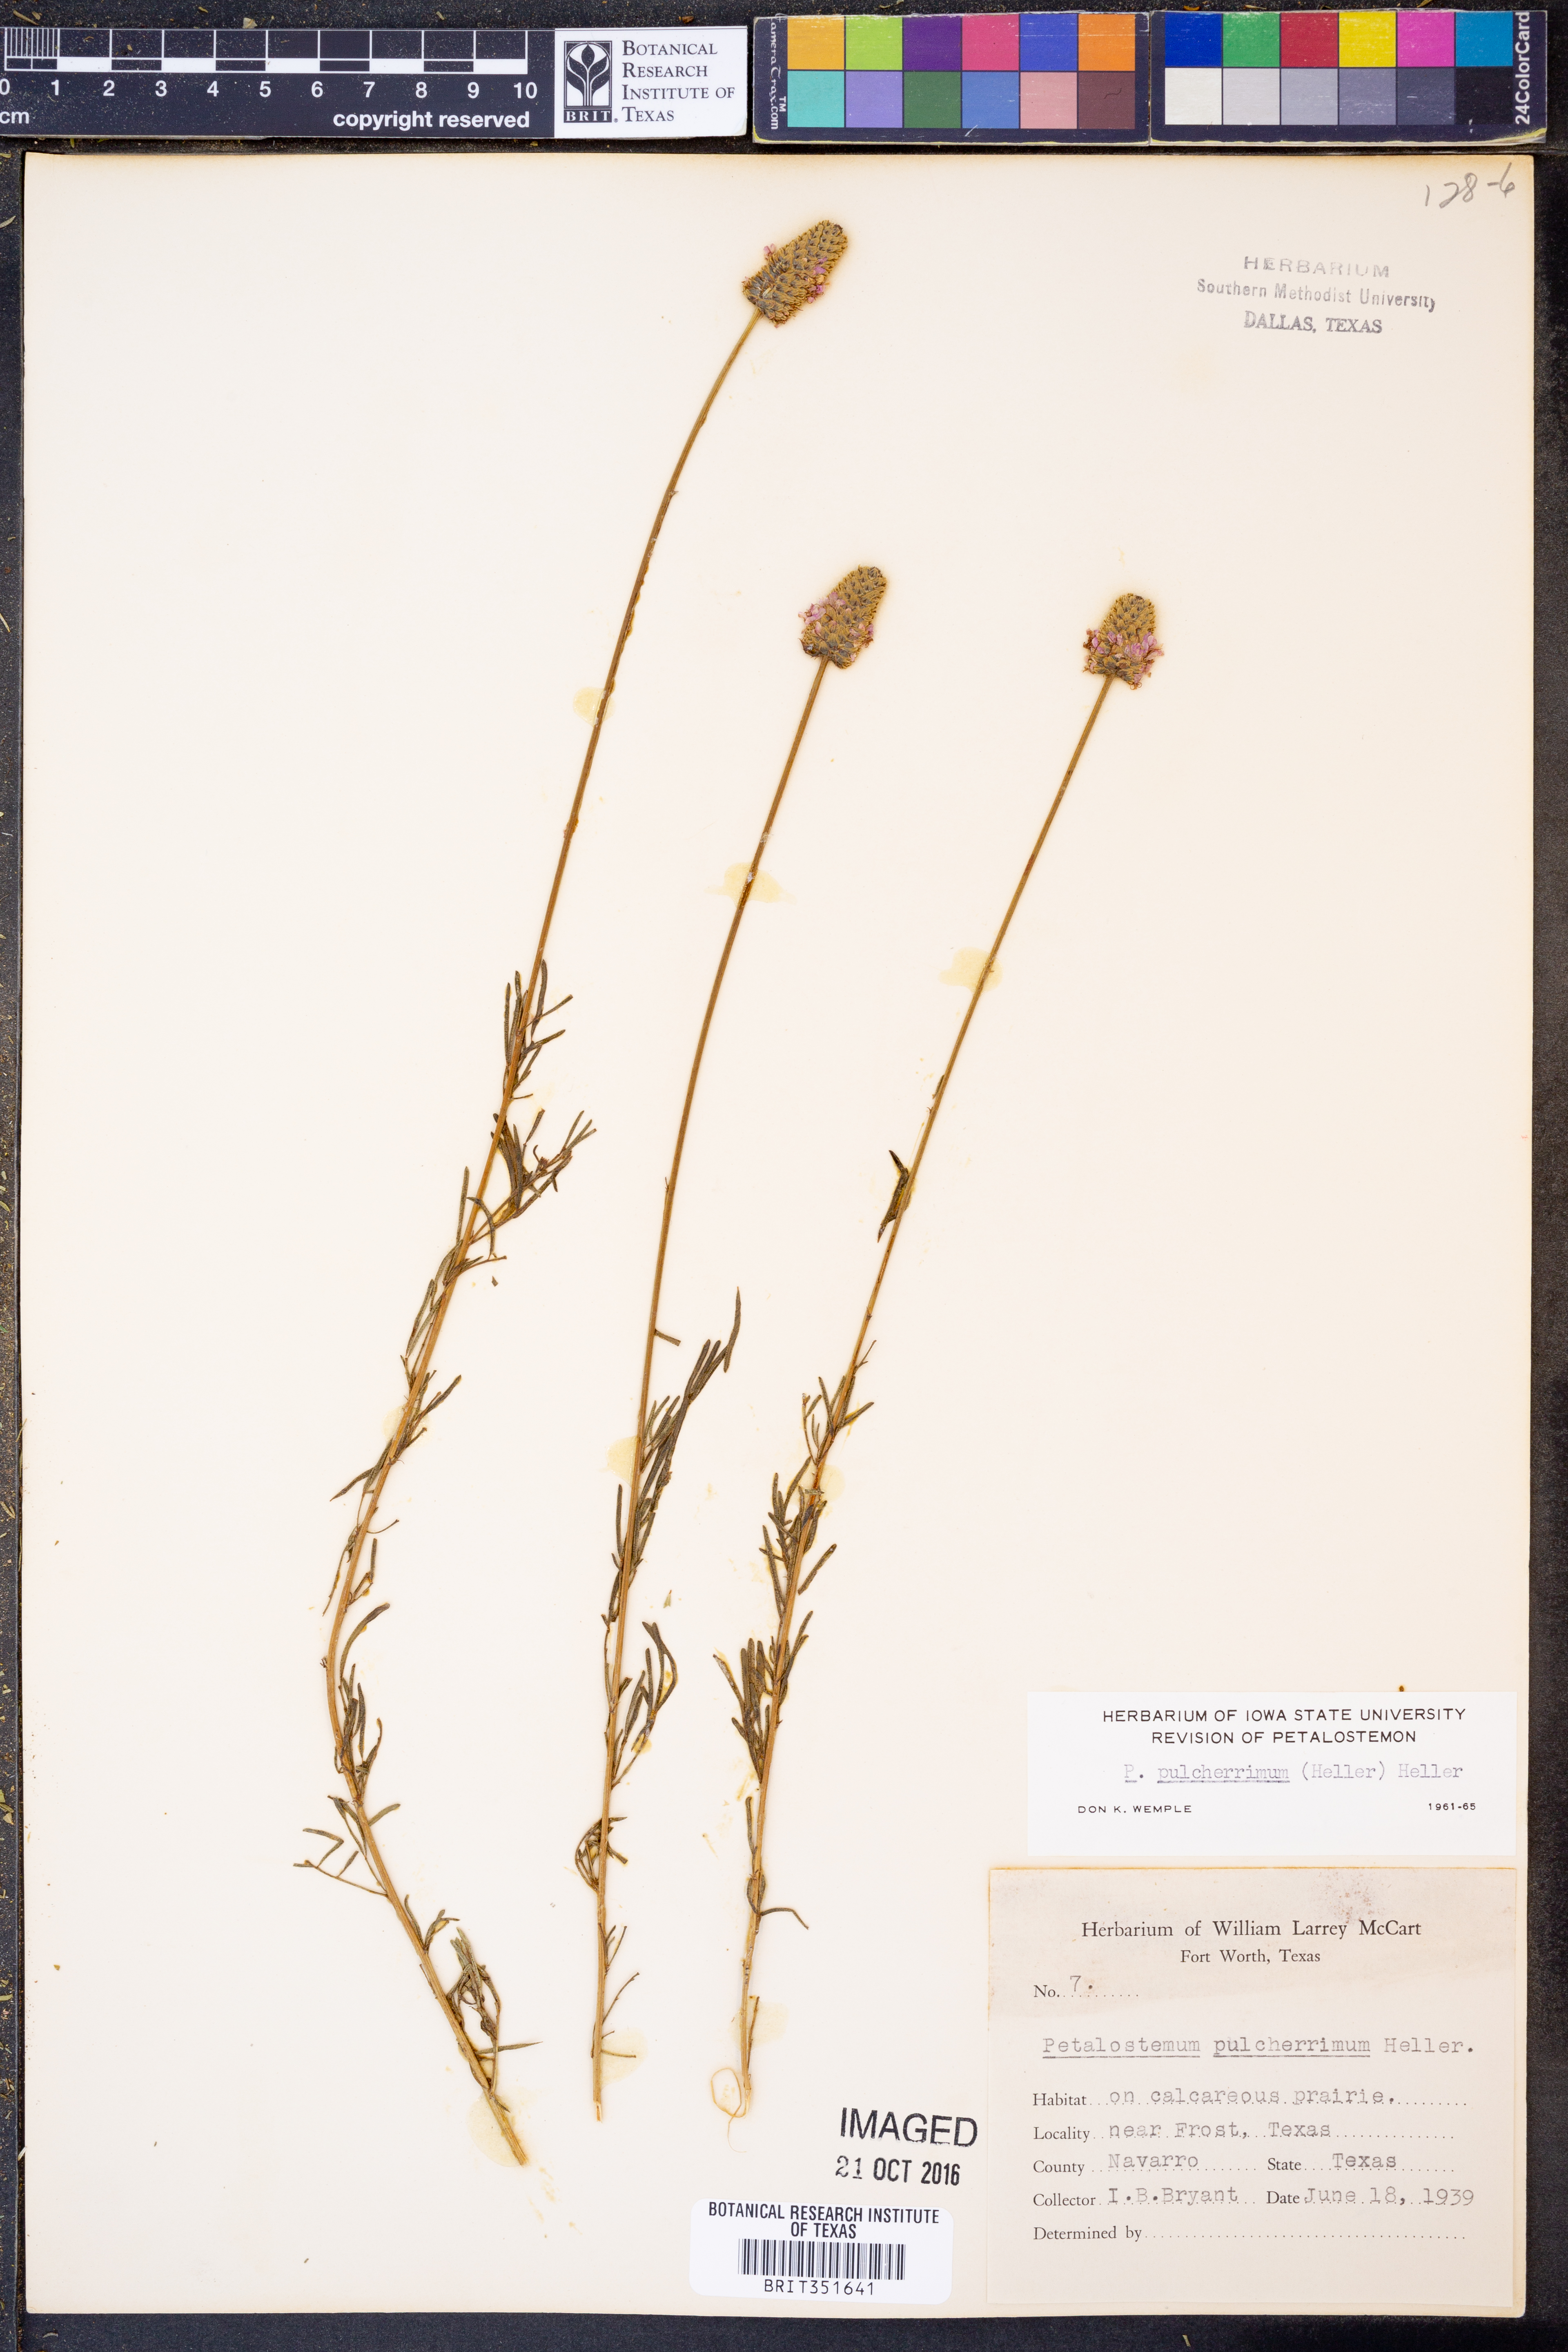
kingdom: Plantae
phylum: Tracheophyta
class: Magnoliopsida
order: Fabales
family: Fabaceae
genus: Dalea
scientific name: Dalea compacta
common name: Compact prairie-clover
